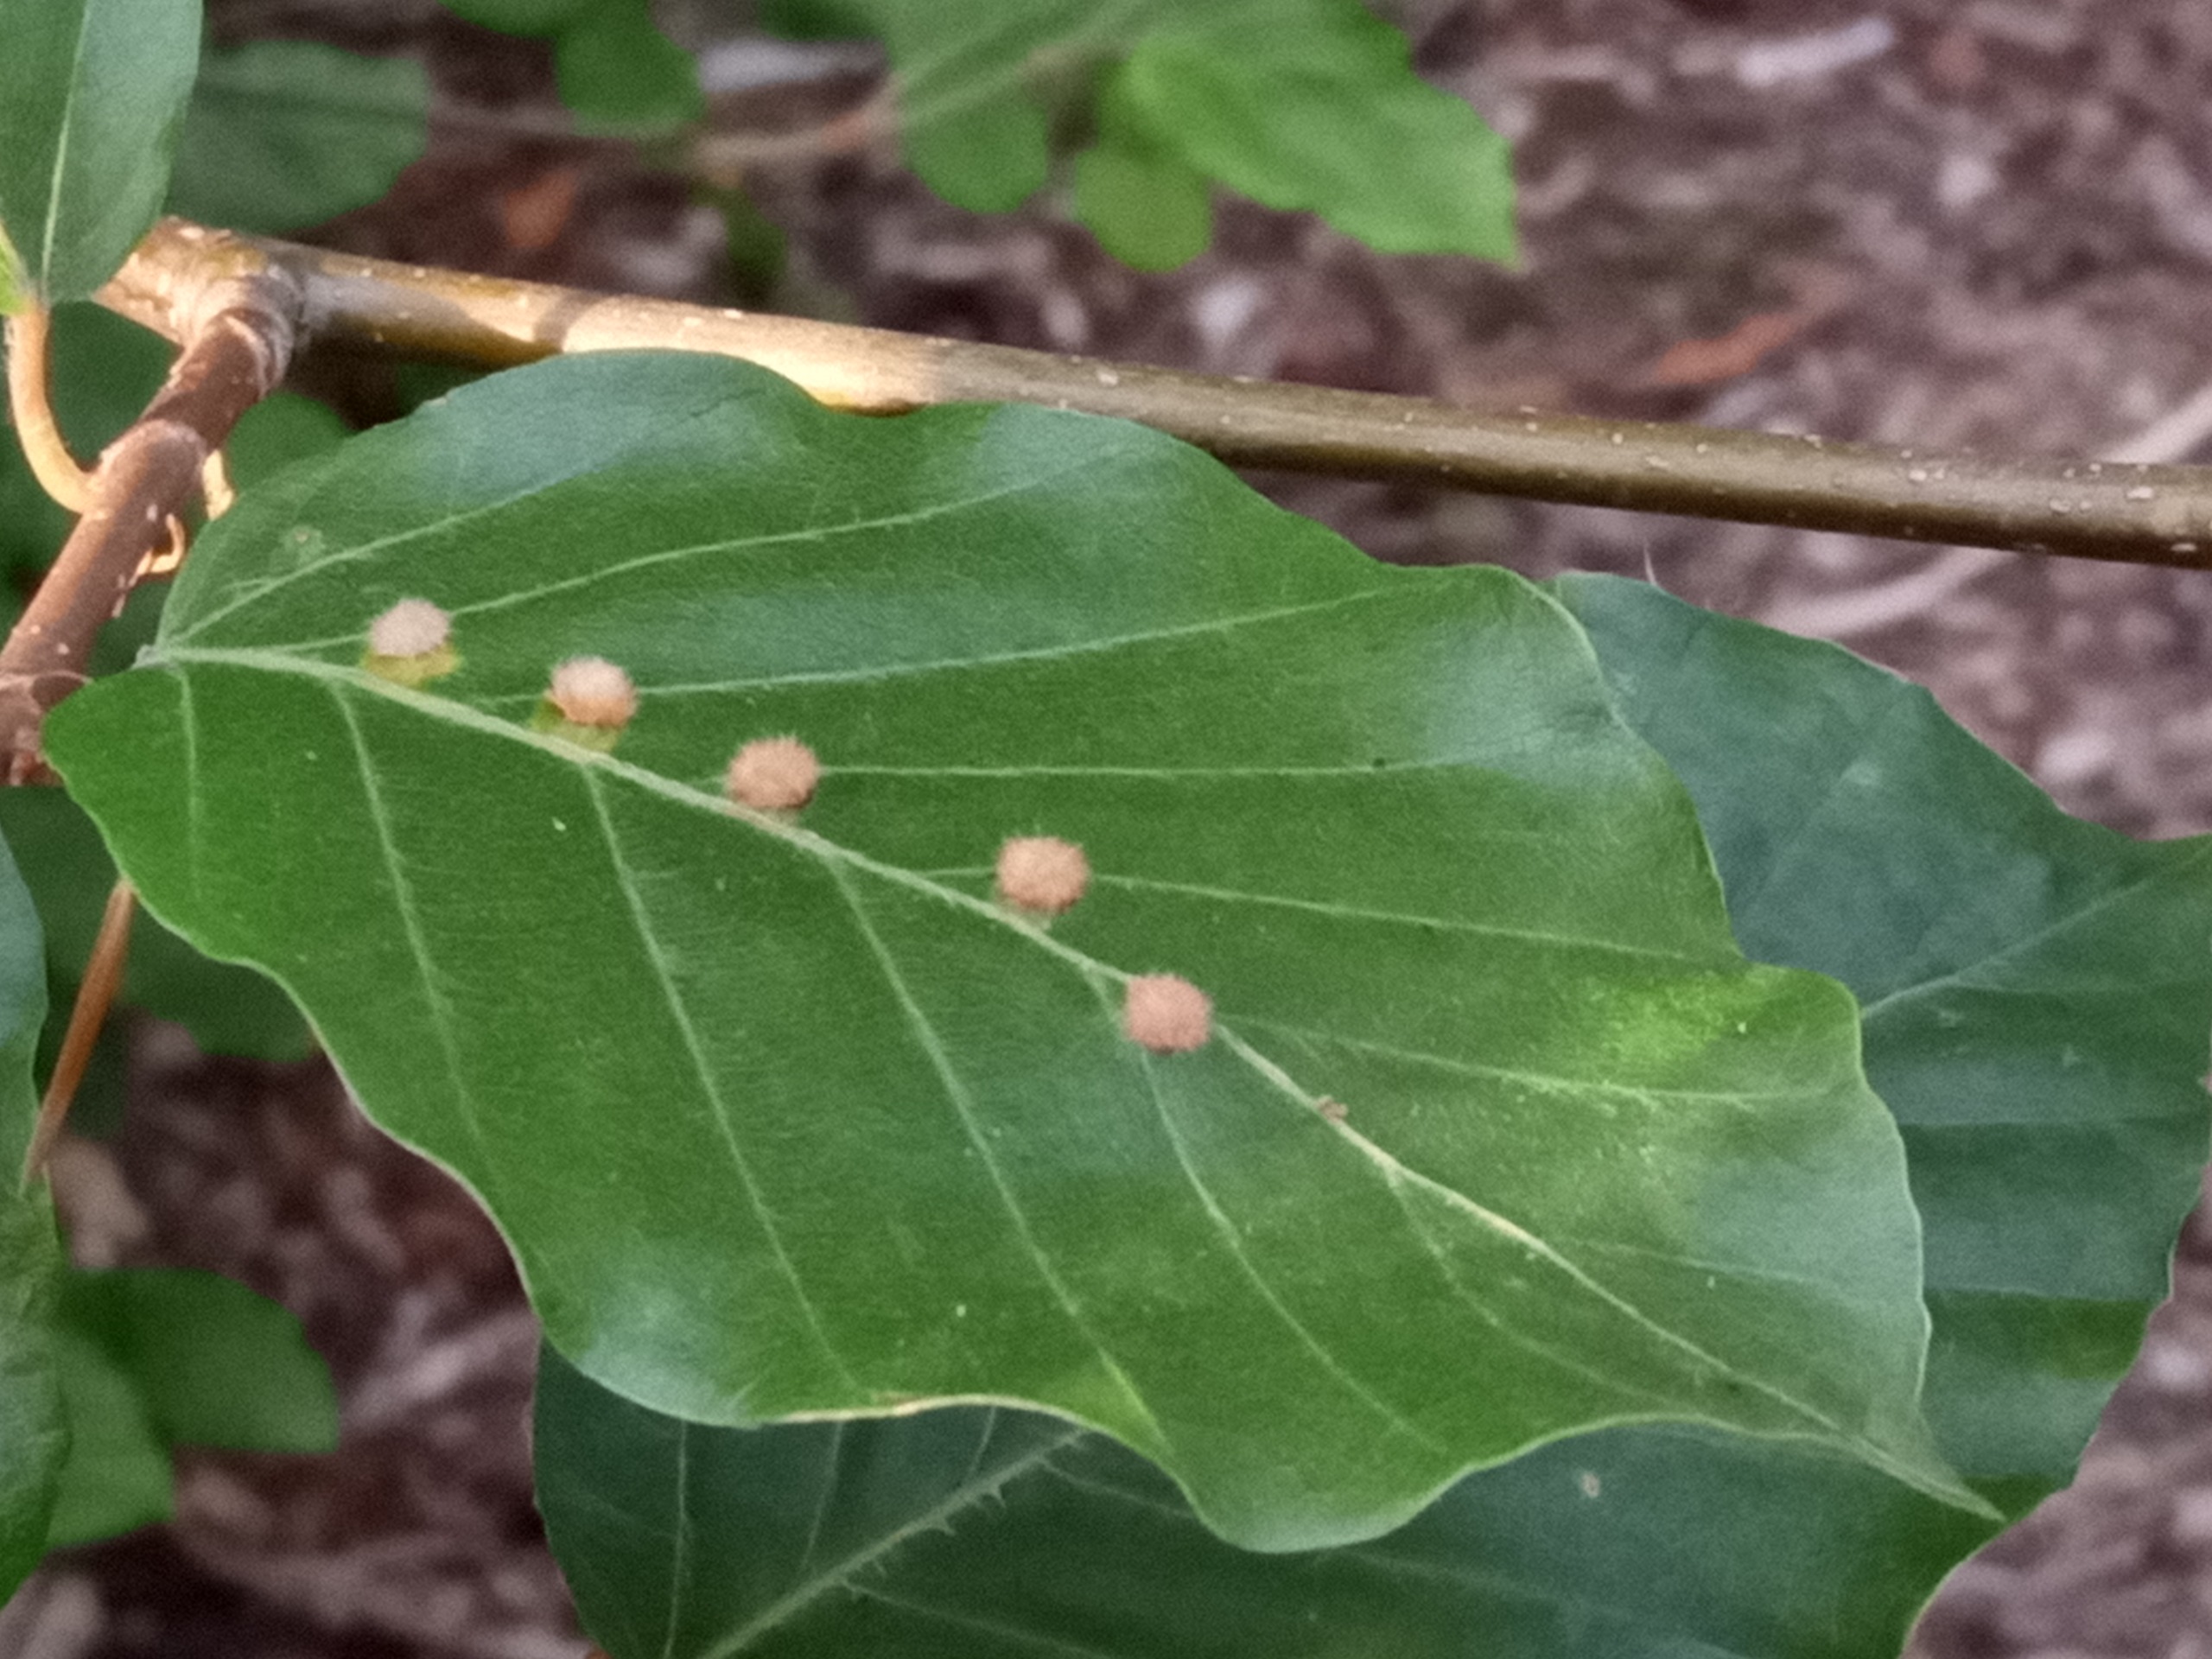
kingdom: Animalia
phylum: Arthropoda
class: Insecta
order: Diptera
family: Cecidomyiidae
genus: Hartigiola
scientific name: Hartigiola annulipes
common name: Skovtroldegalmyg
